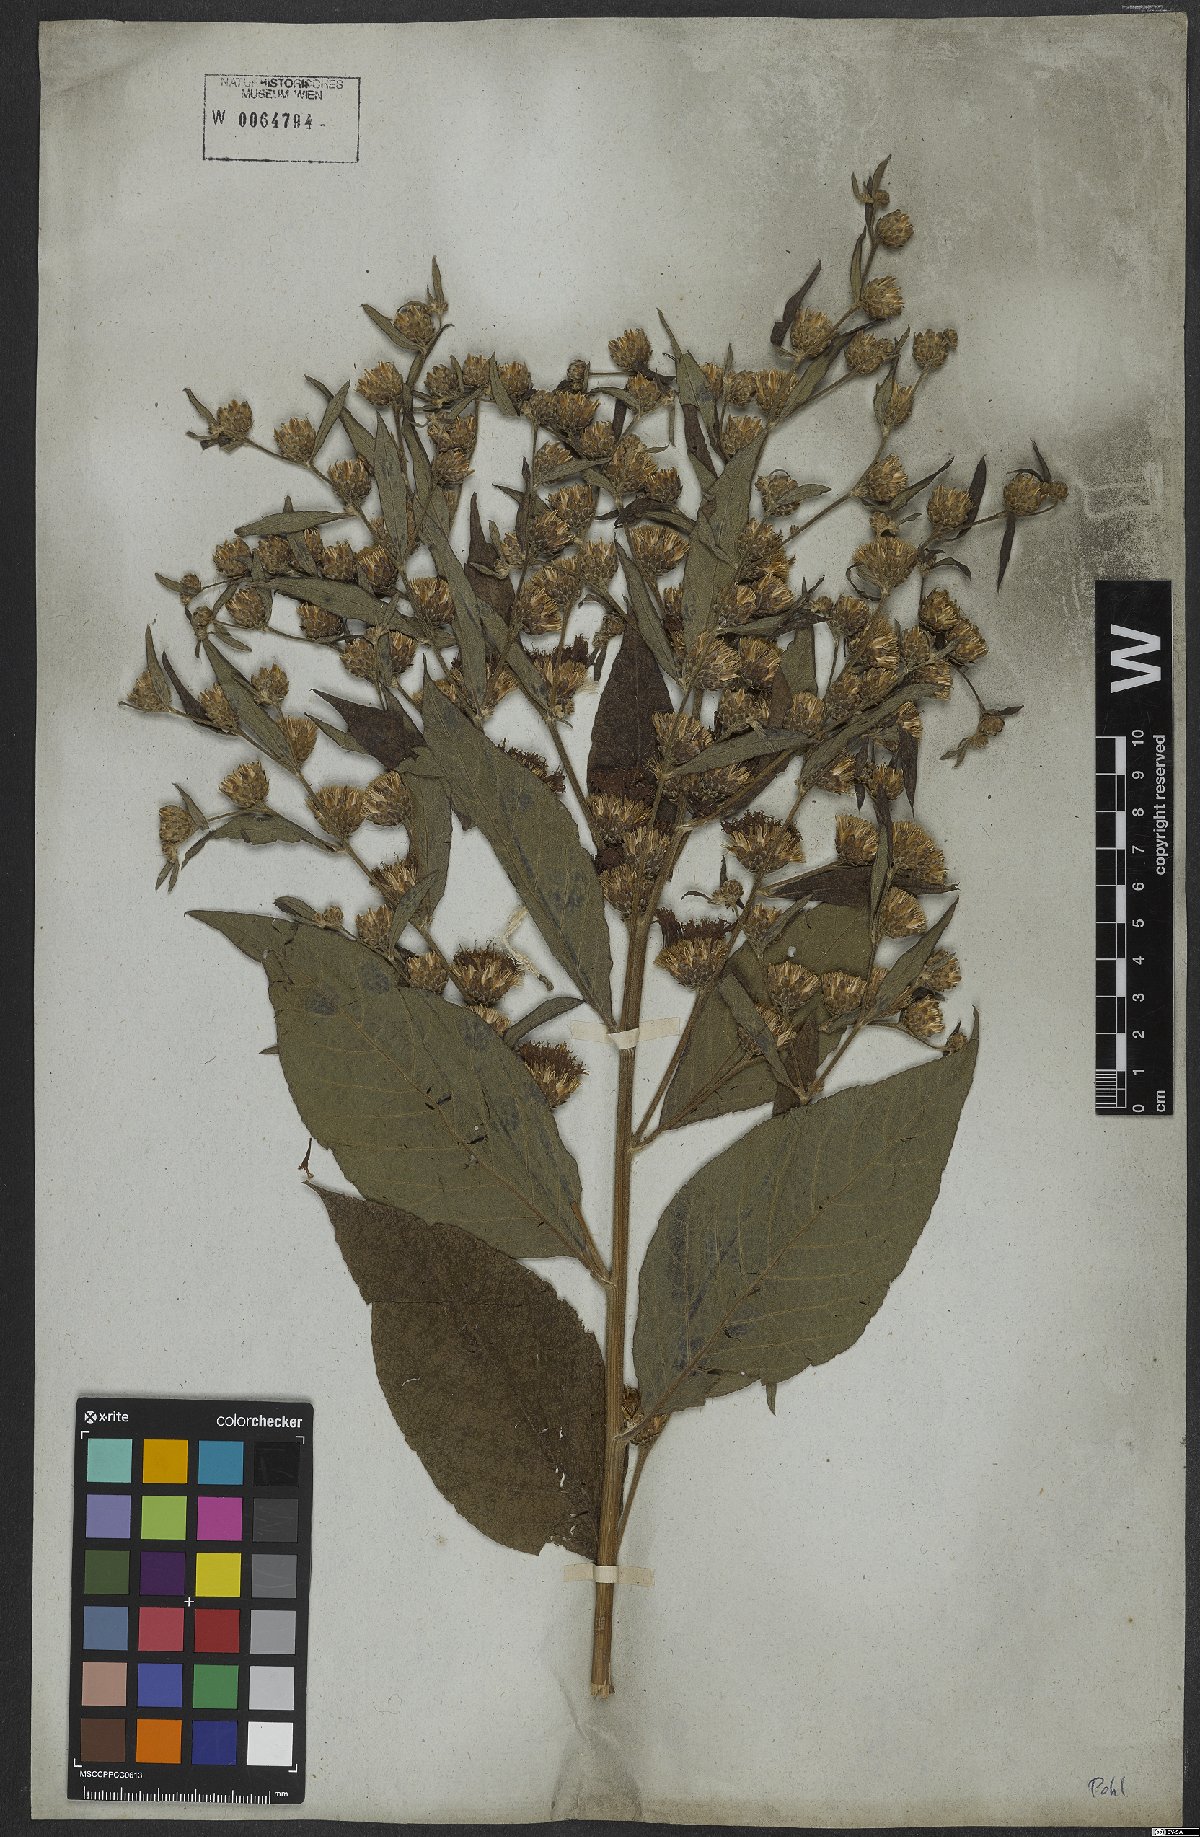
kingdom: Plantae
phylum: Tracheophyta
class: Magnoliopsida
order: Asterales
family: Asteraceae
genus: Gymnanthemum
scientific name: Gymnanthemum theophrastifolium
